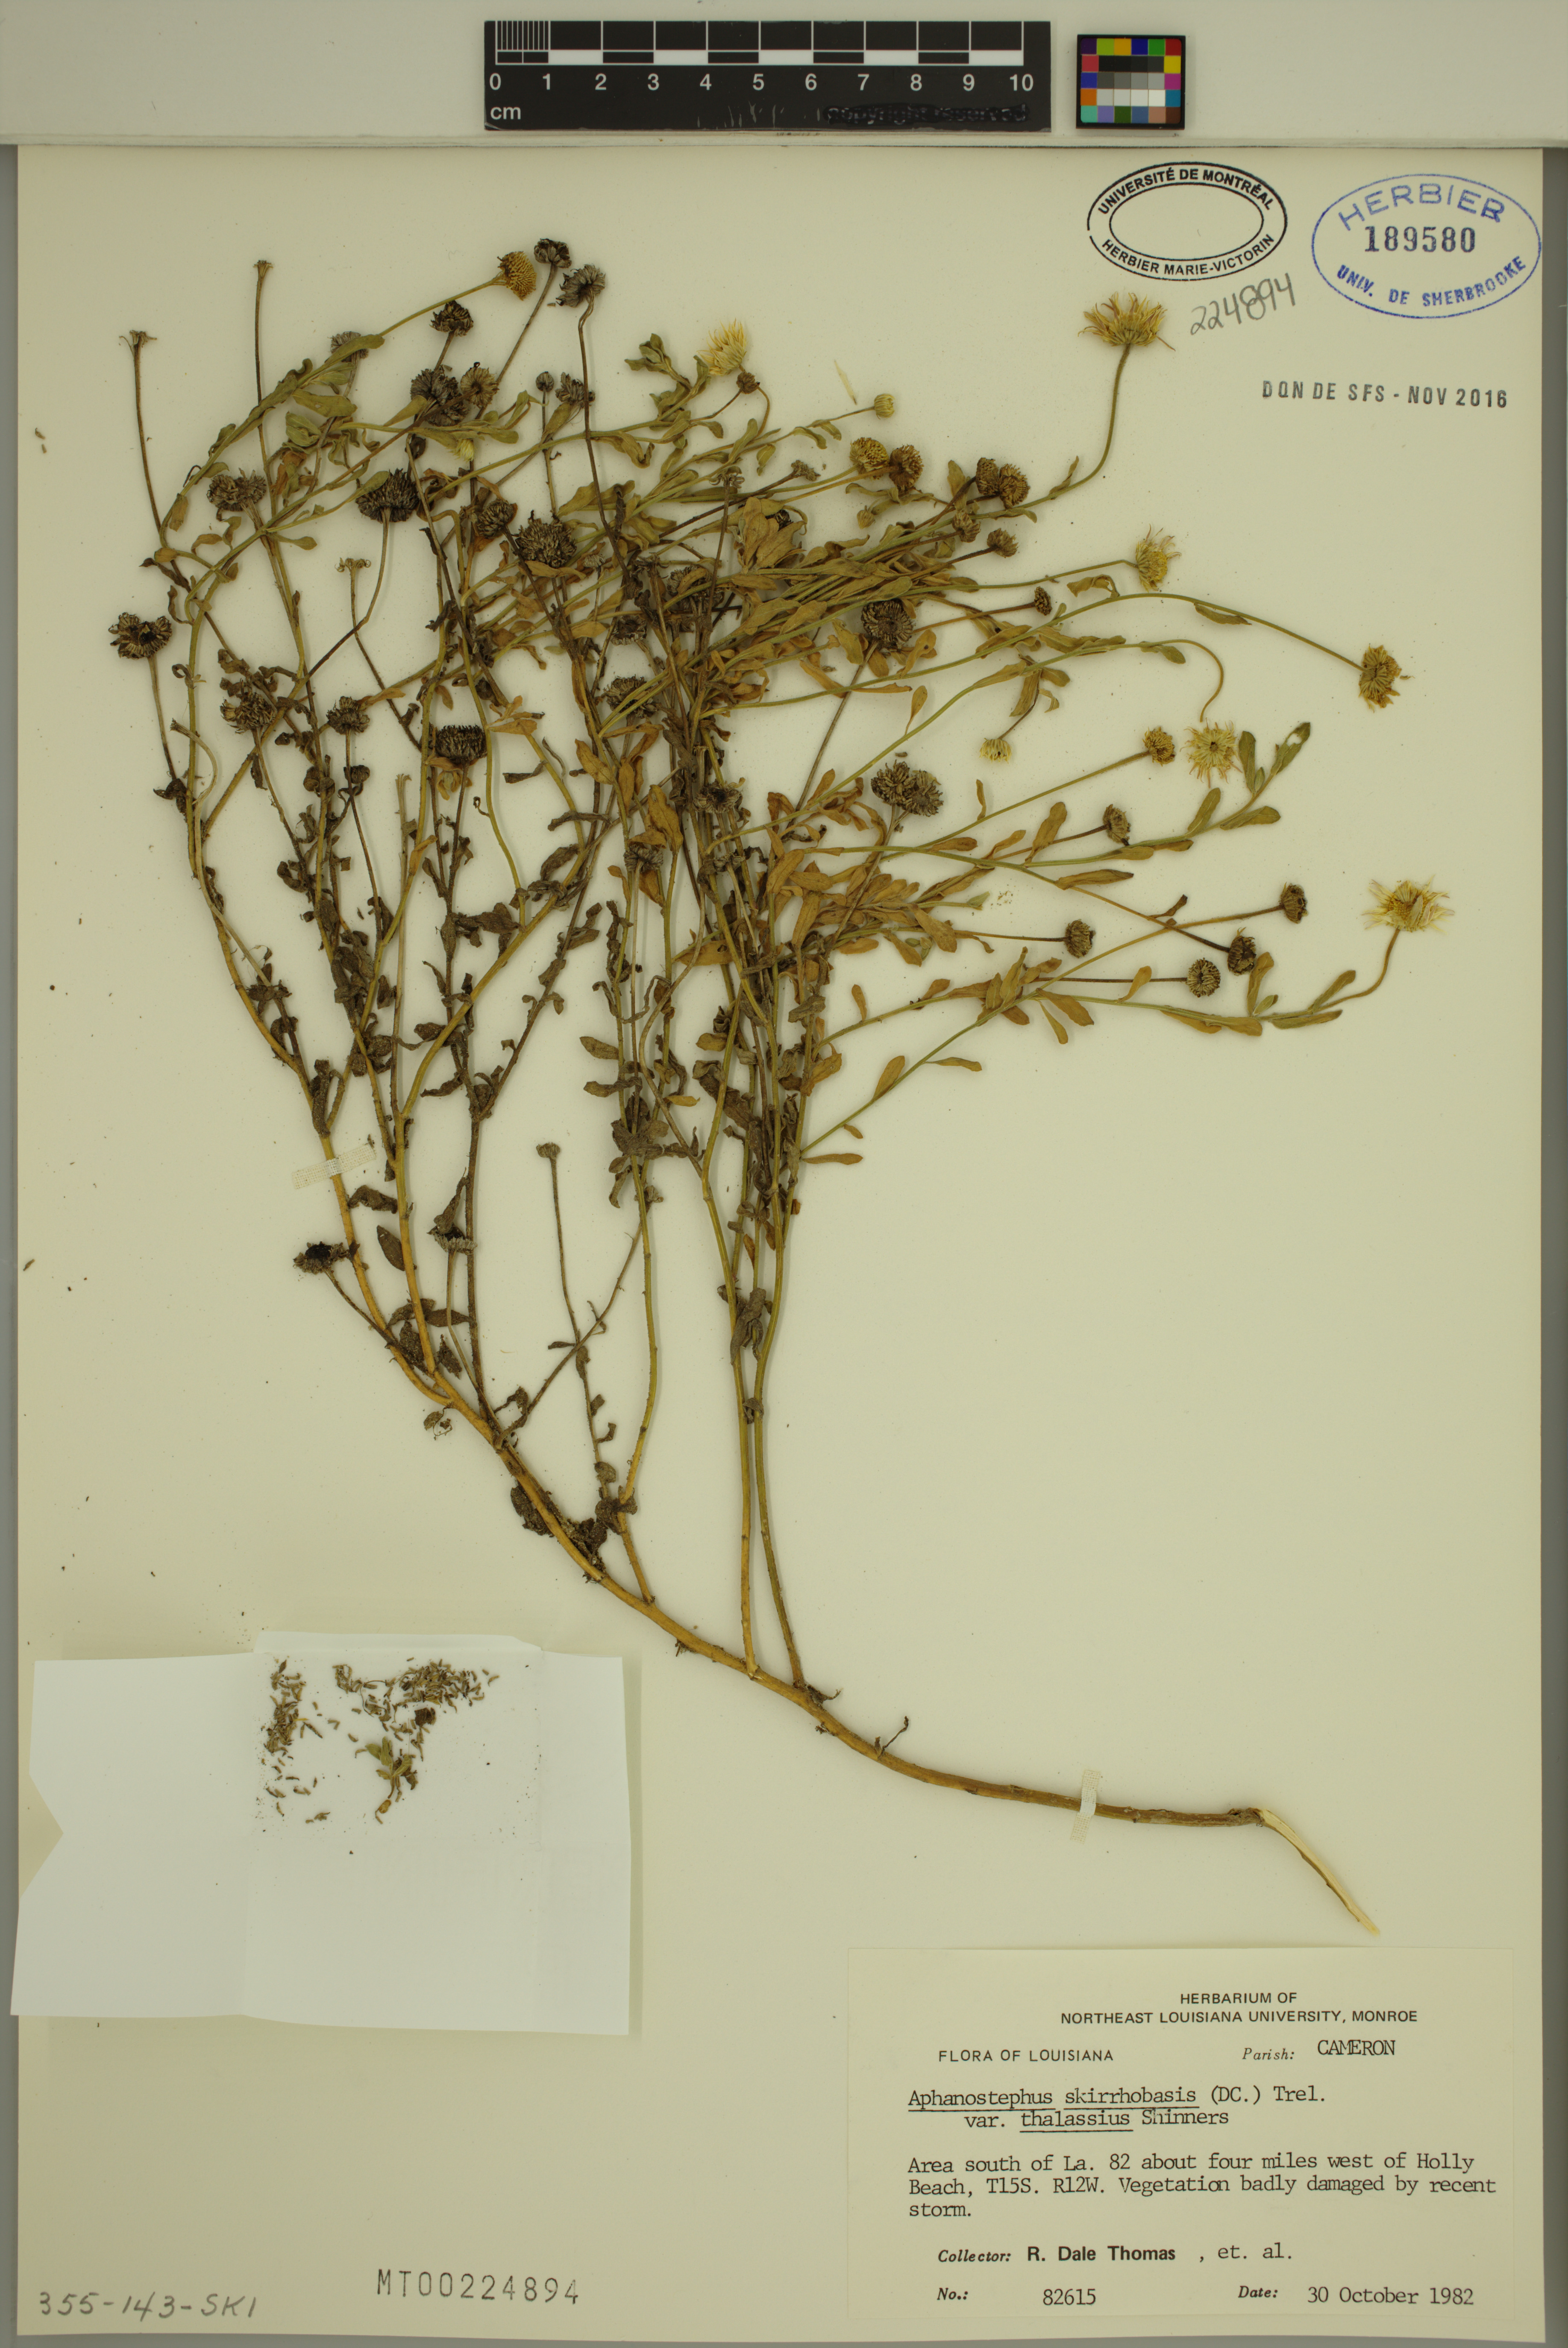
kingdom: Plantae
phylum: Tracheophyta
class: Magnoliopsida
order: Asterales
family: Asteraceae
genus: Aphanostephus
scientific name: Aphanostephus skirrhobasis
